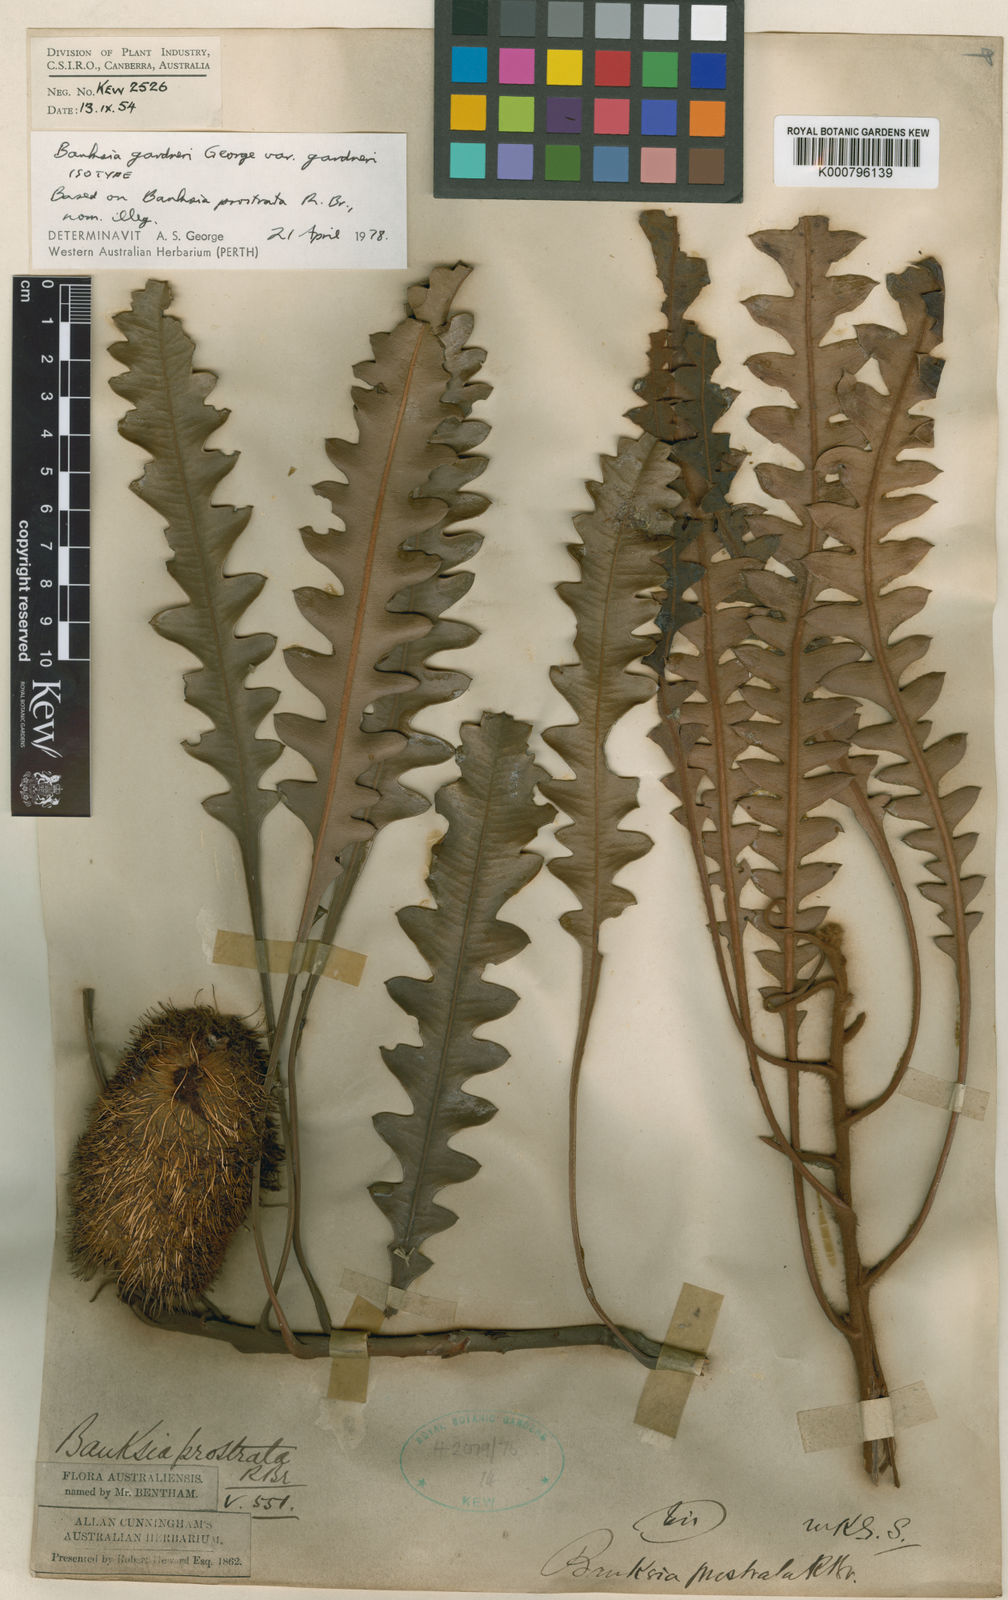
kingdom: Plantae
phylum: Tracheophyta
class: Magnoliopsida
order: Proteales
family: Proteaceae
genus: Banksia
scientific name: Banksia gardneri
